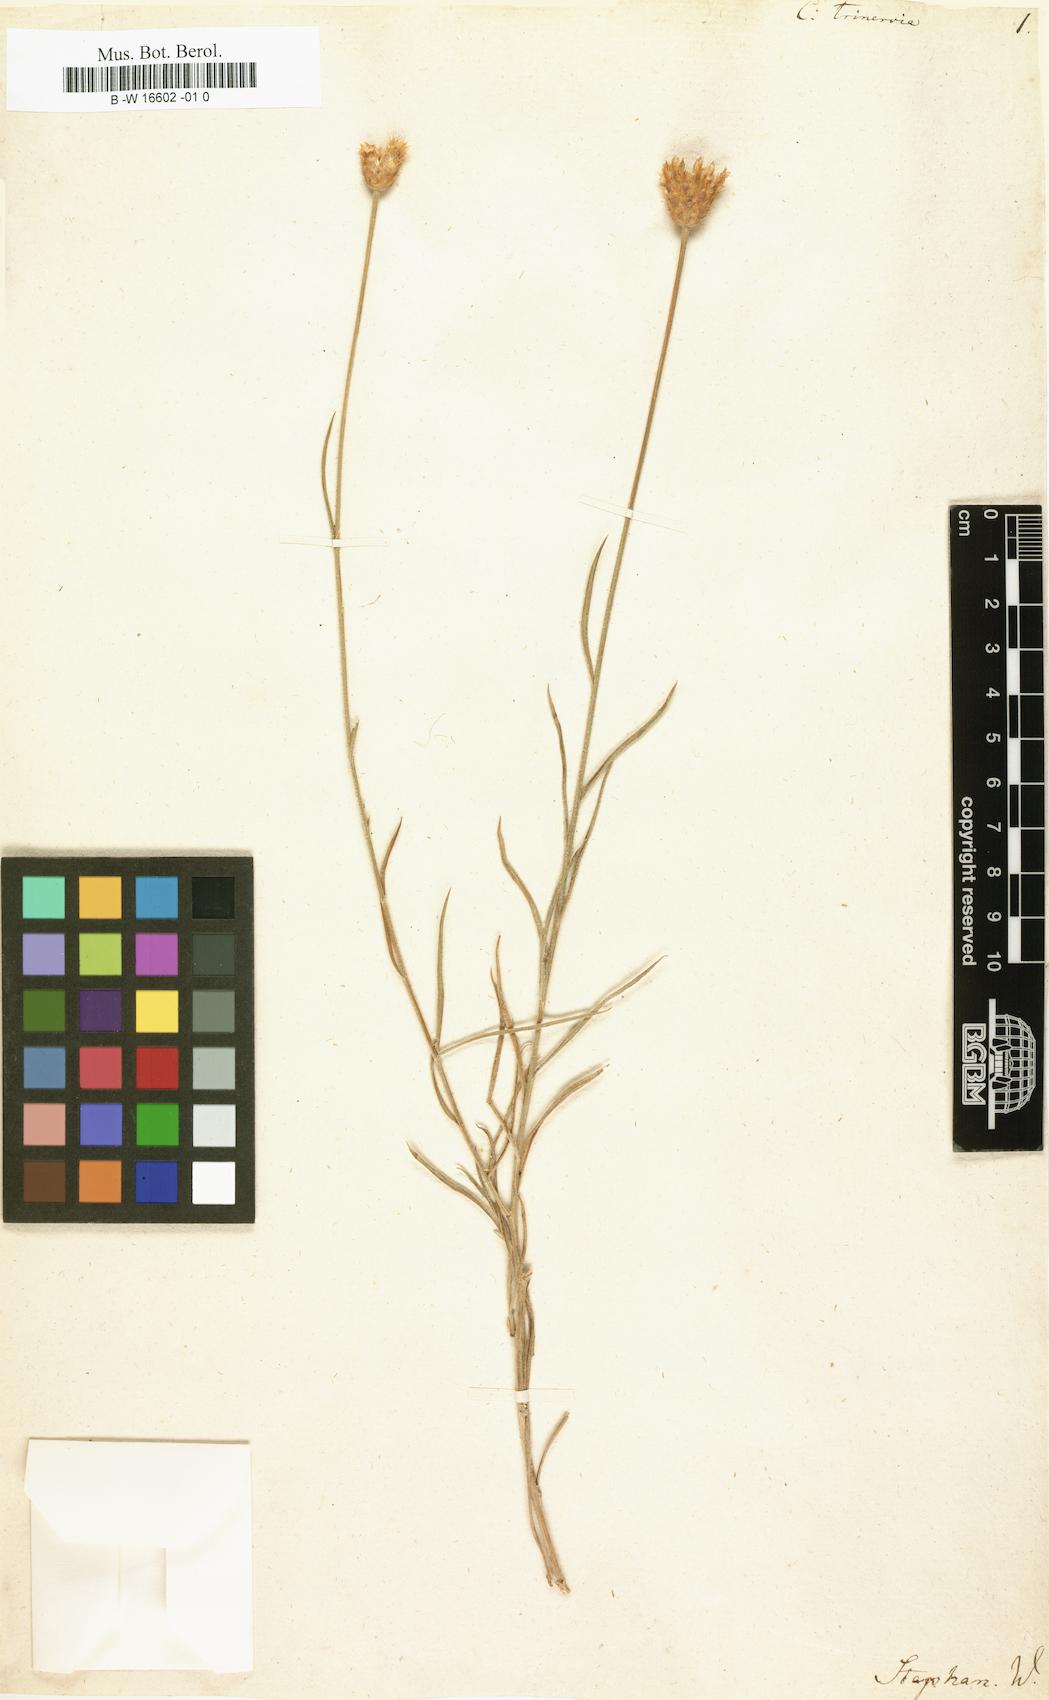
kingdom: Plantae
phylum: Tracheophyta
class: Magnoliopsida
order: Asterales
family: Asteraceae
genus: Psephellus
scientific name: Psephellus trinervius
